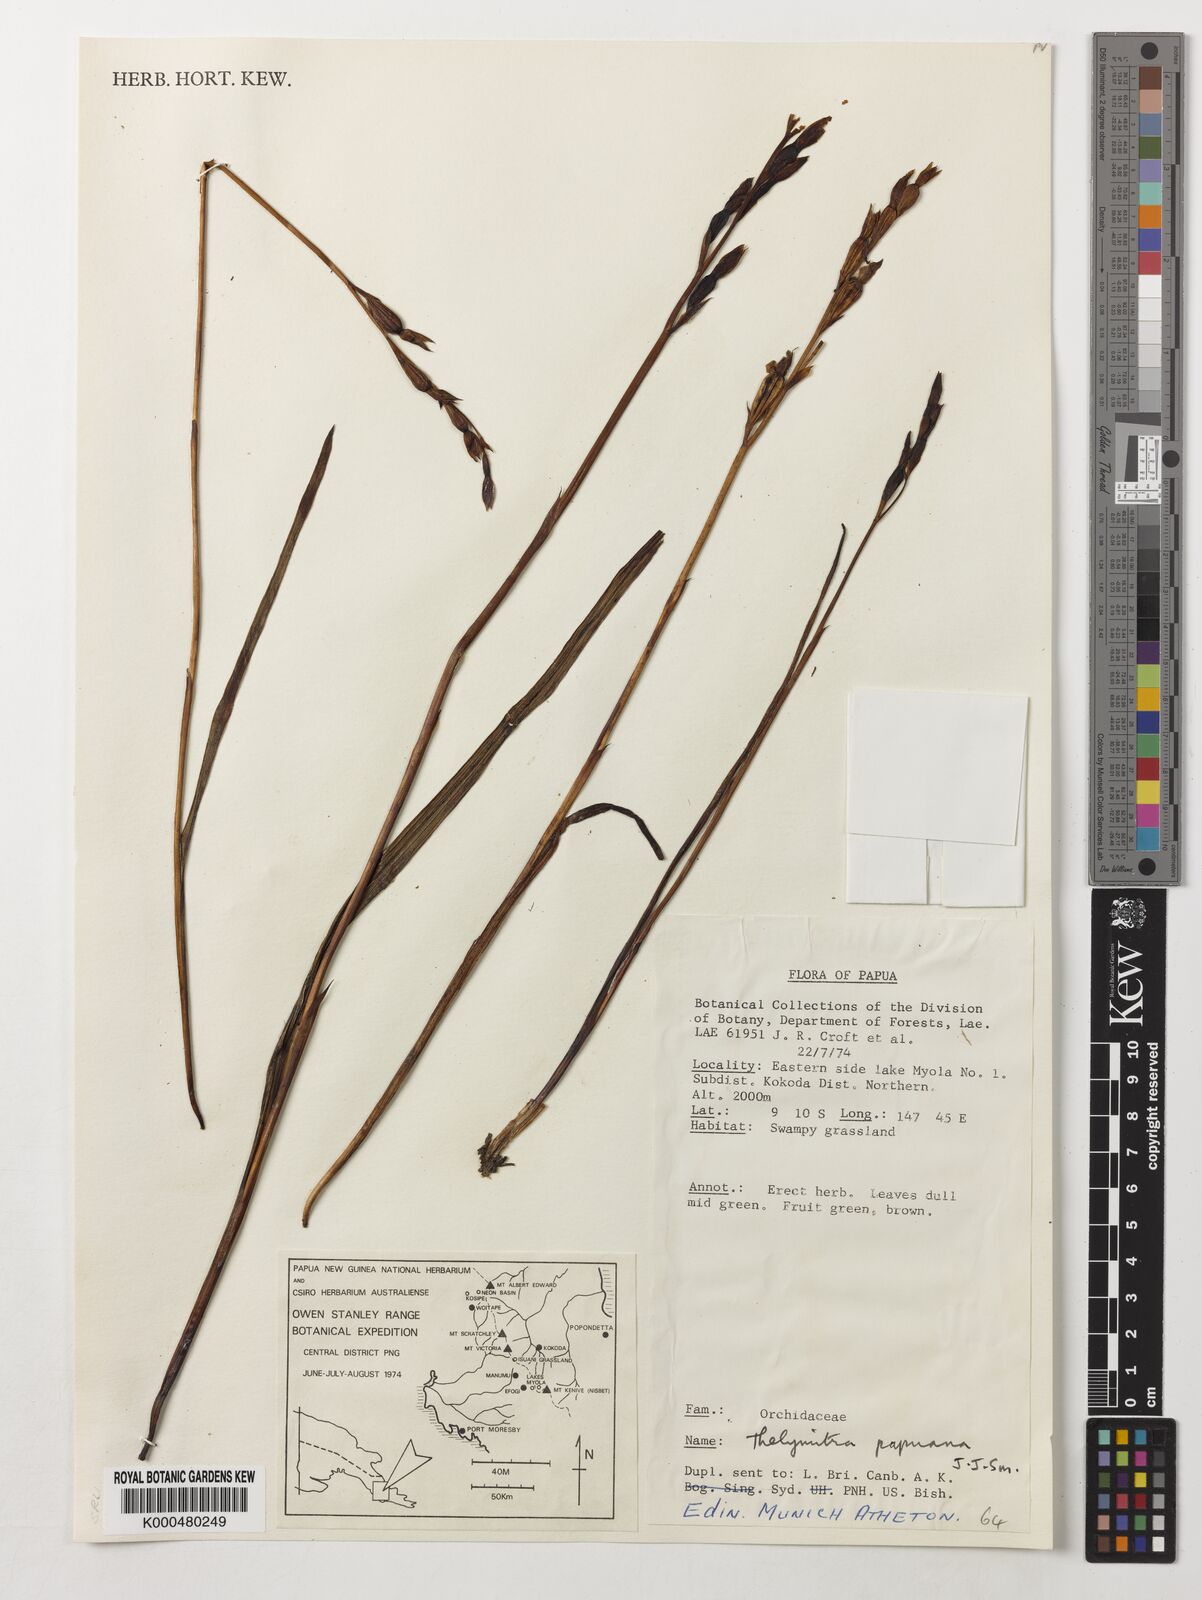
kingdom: Plantae
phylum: Tracheophyta
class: Liliopsida
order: Asparagales
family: Orchidaceae
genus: Thelymitra
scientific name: Thelymitra papuana
